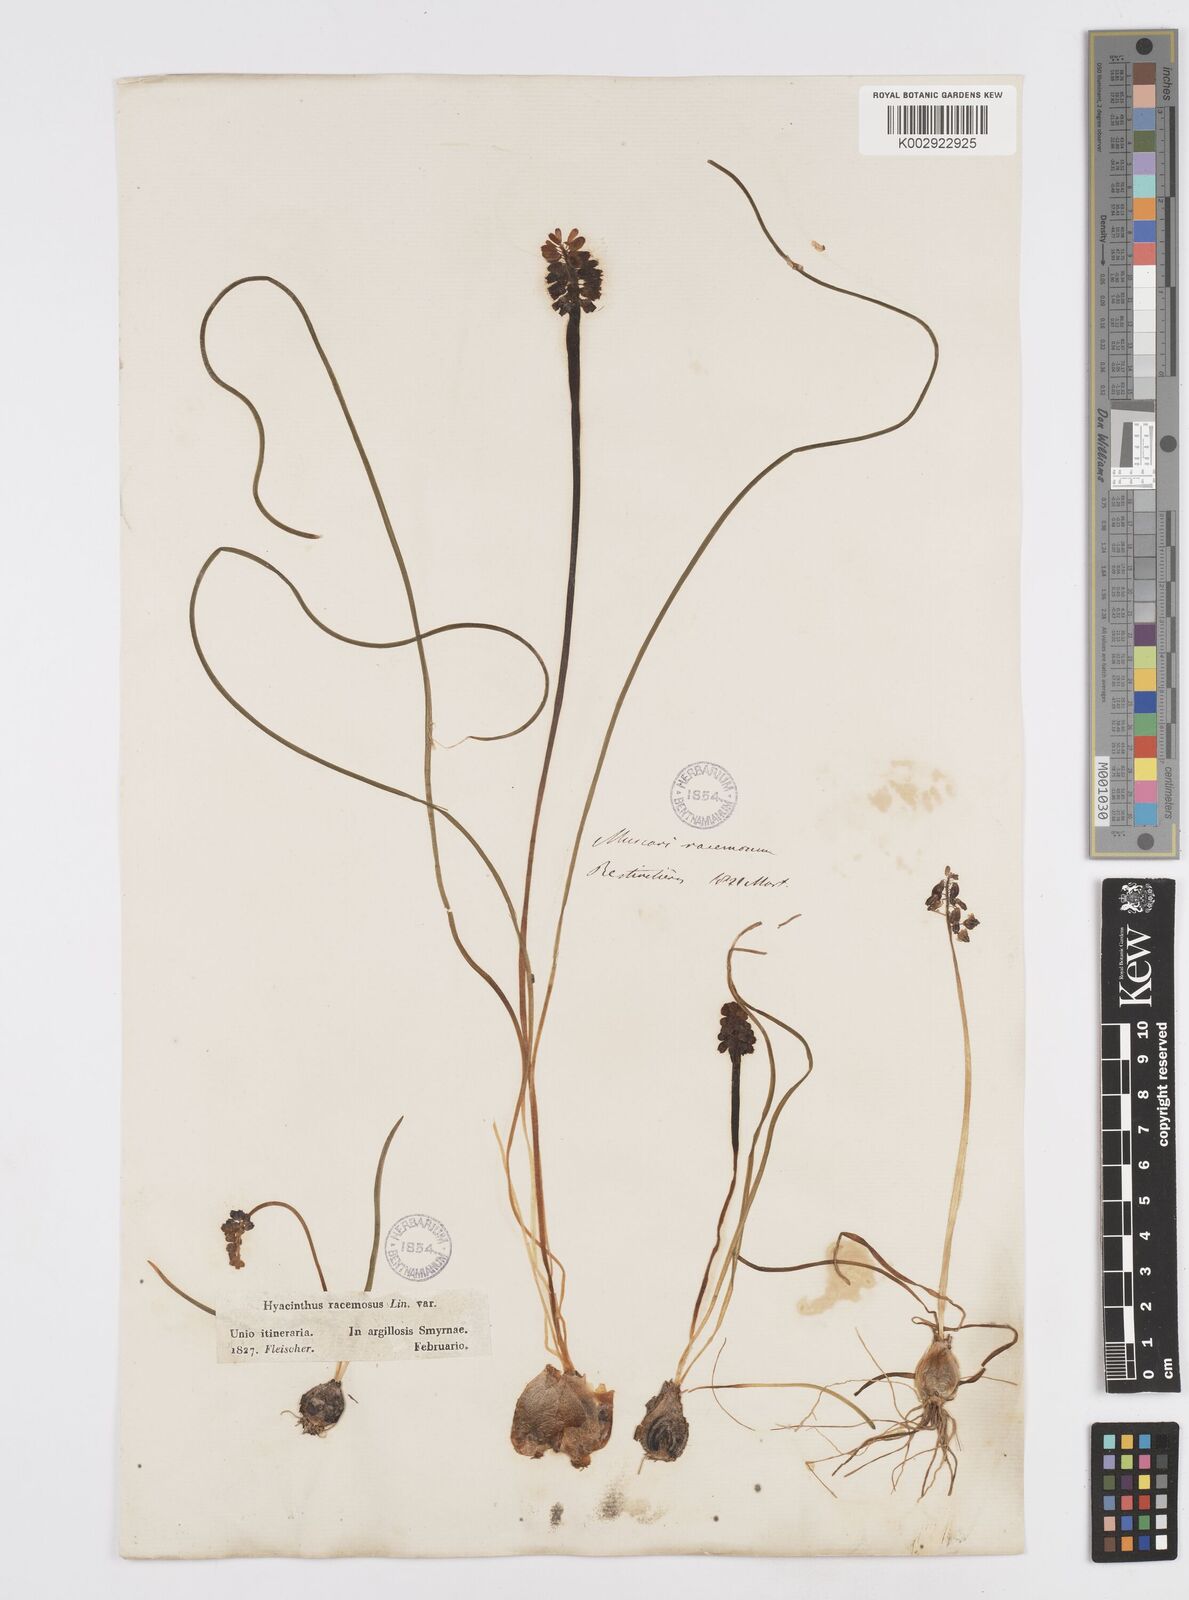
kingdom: Plantae
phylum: Tracheophyta
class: Liliopsida
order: Asparagales
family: Asparagaceae
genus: Muscarimia
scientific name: Muscarimia muscari
